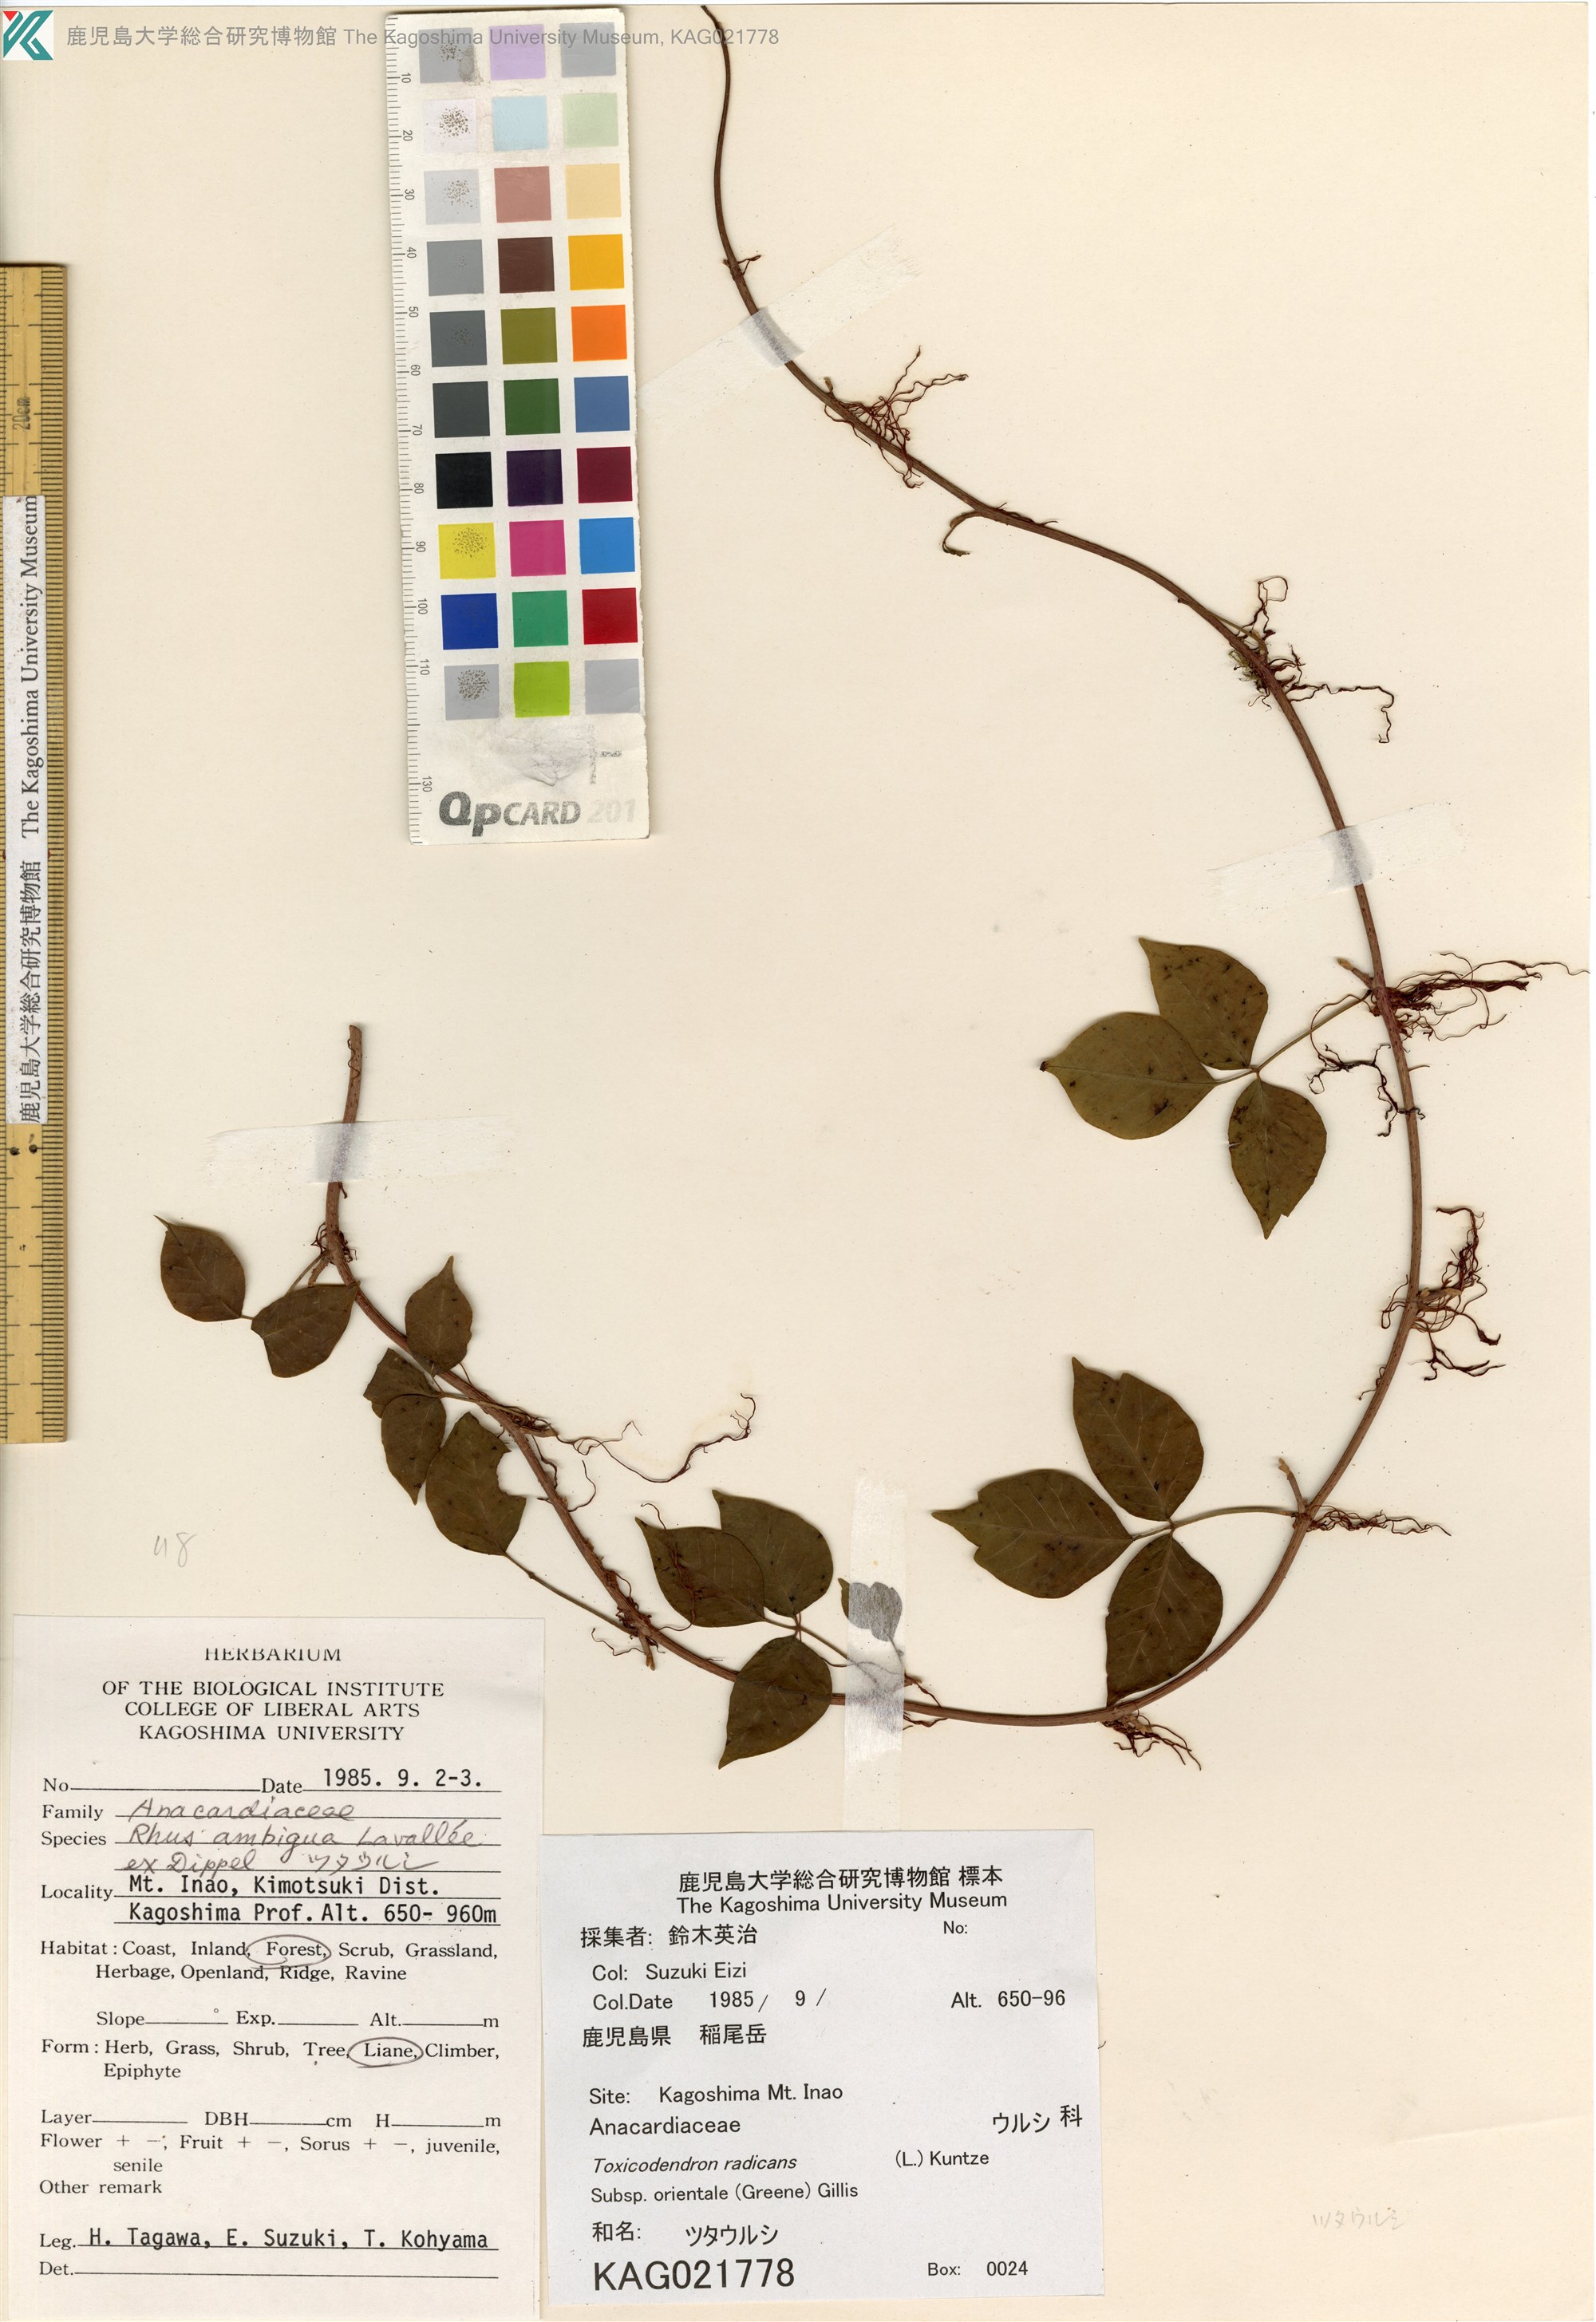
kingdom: Plantae
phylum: Tracheophyta
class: Magnoliopsida
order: Sapindales
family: Anacardiaceae
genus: Toxicodendron
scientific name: Toxicodendron orientale
